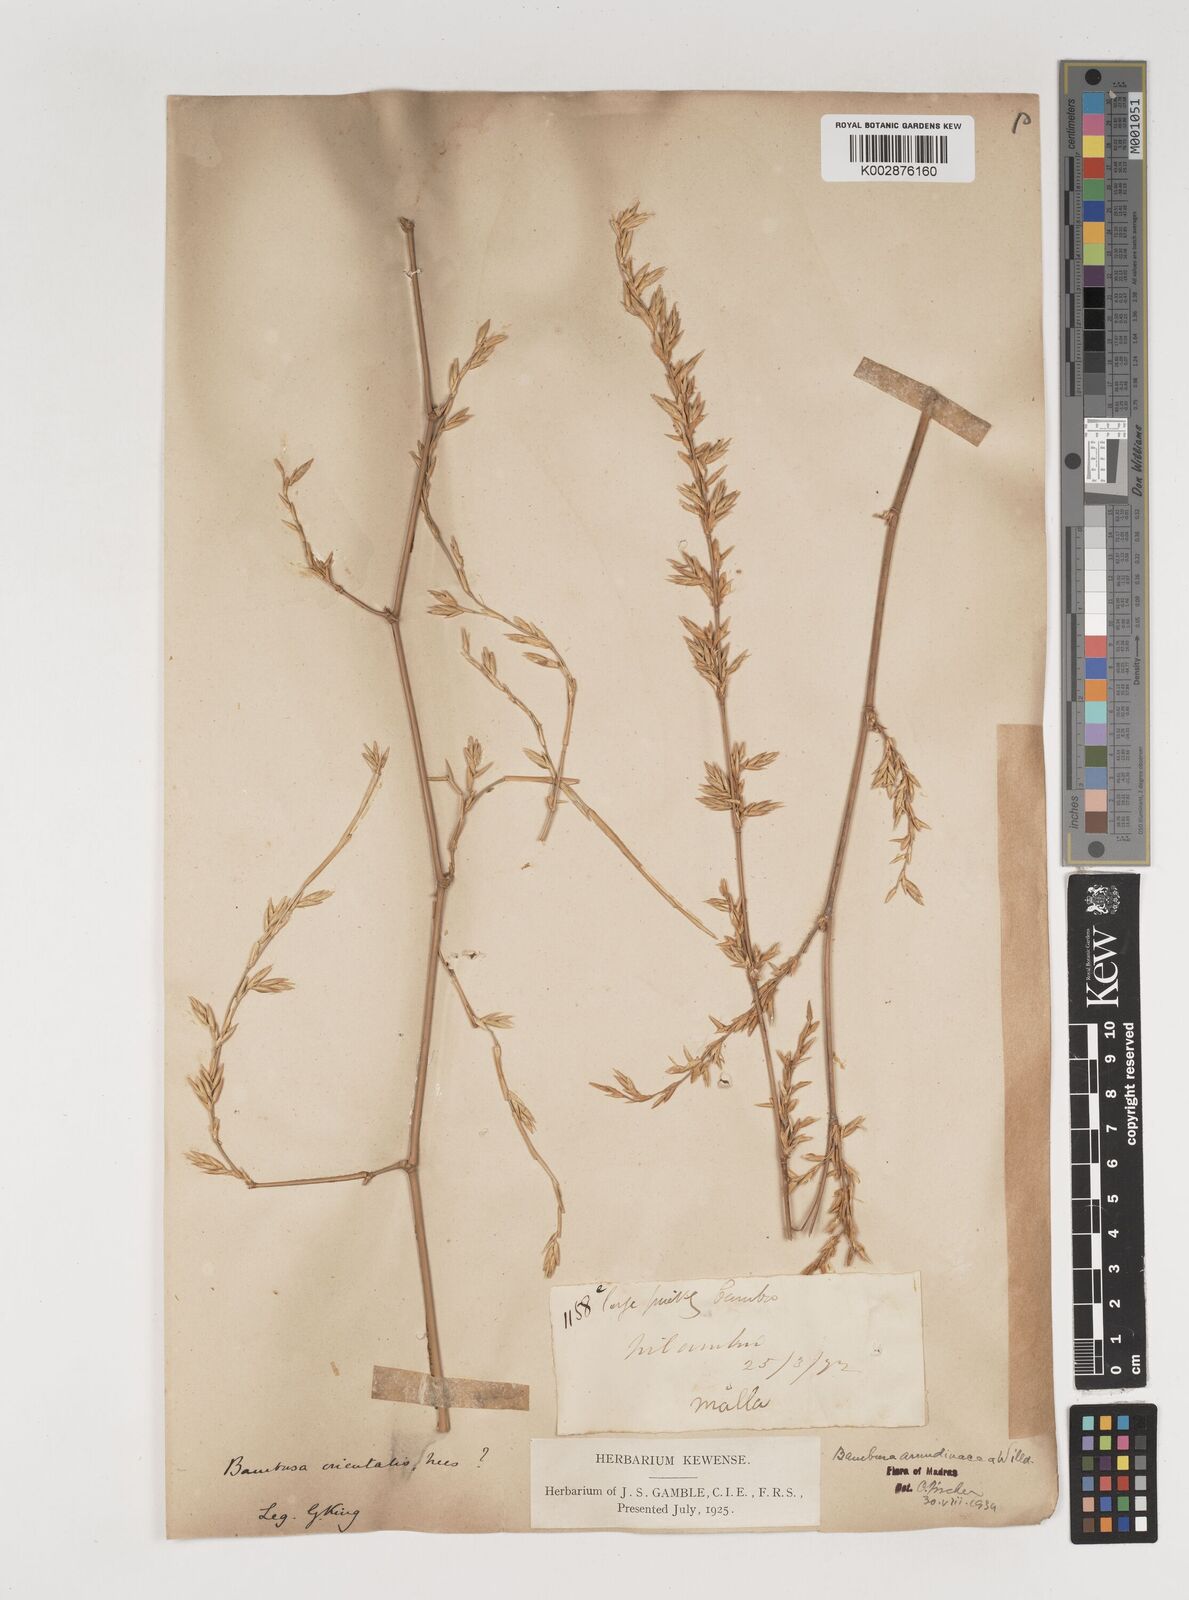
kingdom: Plantae
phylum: Tracheophyta
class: Liliopsida
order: Poales
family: Poaceae
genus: Bambusa
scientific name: Bambusa bambos
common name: Indian thorny bamboo
